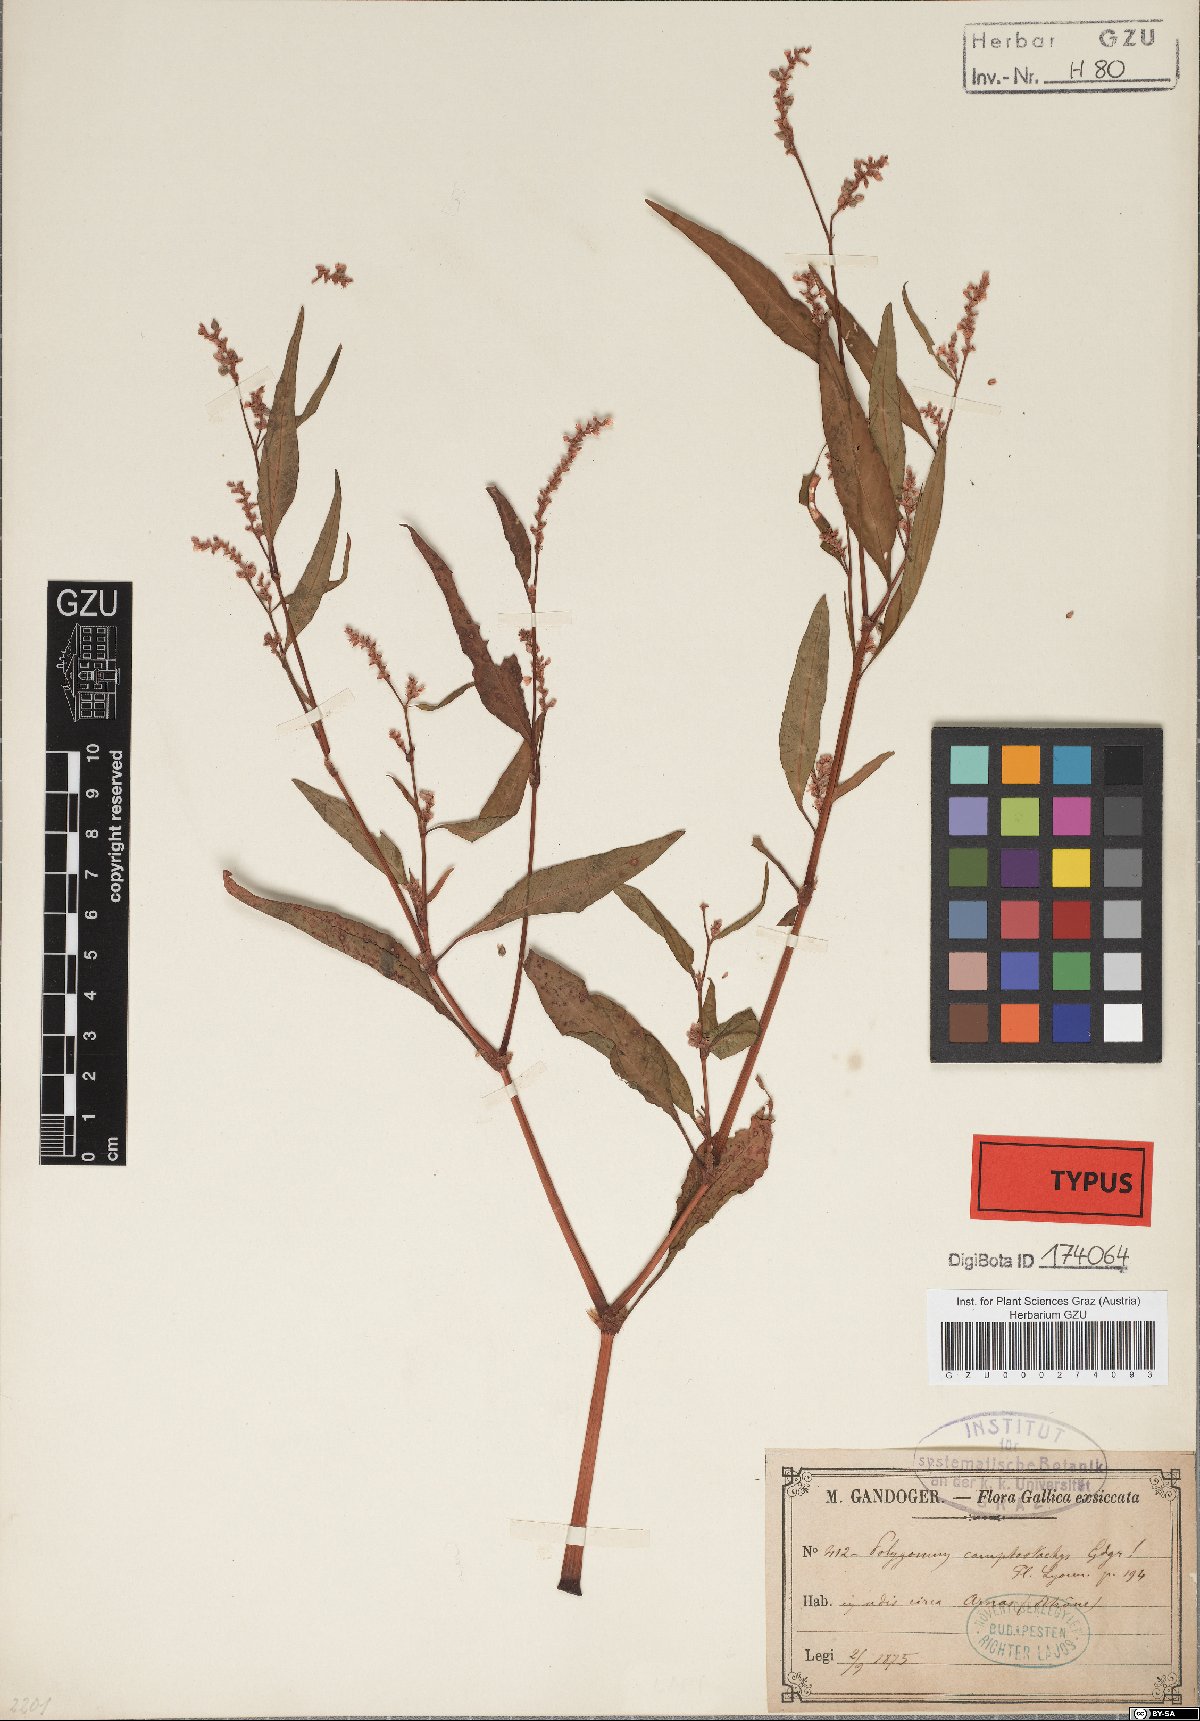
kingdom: Plantae
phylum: Tracheophyta
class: Magnoliopsida
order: Caryophyllales
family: Polygonaceae
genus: Bistorta
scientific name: Bistorta vivipara
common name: Alpine bistort
